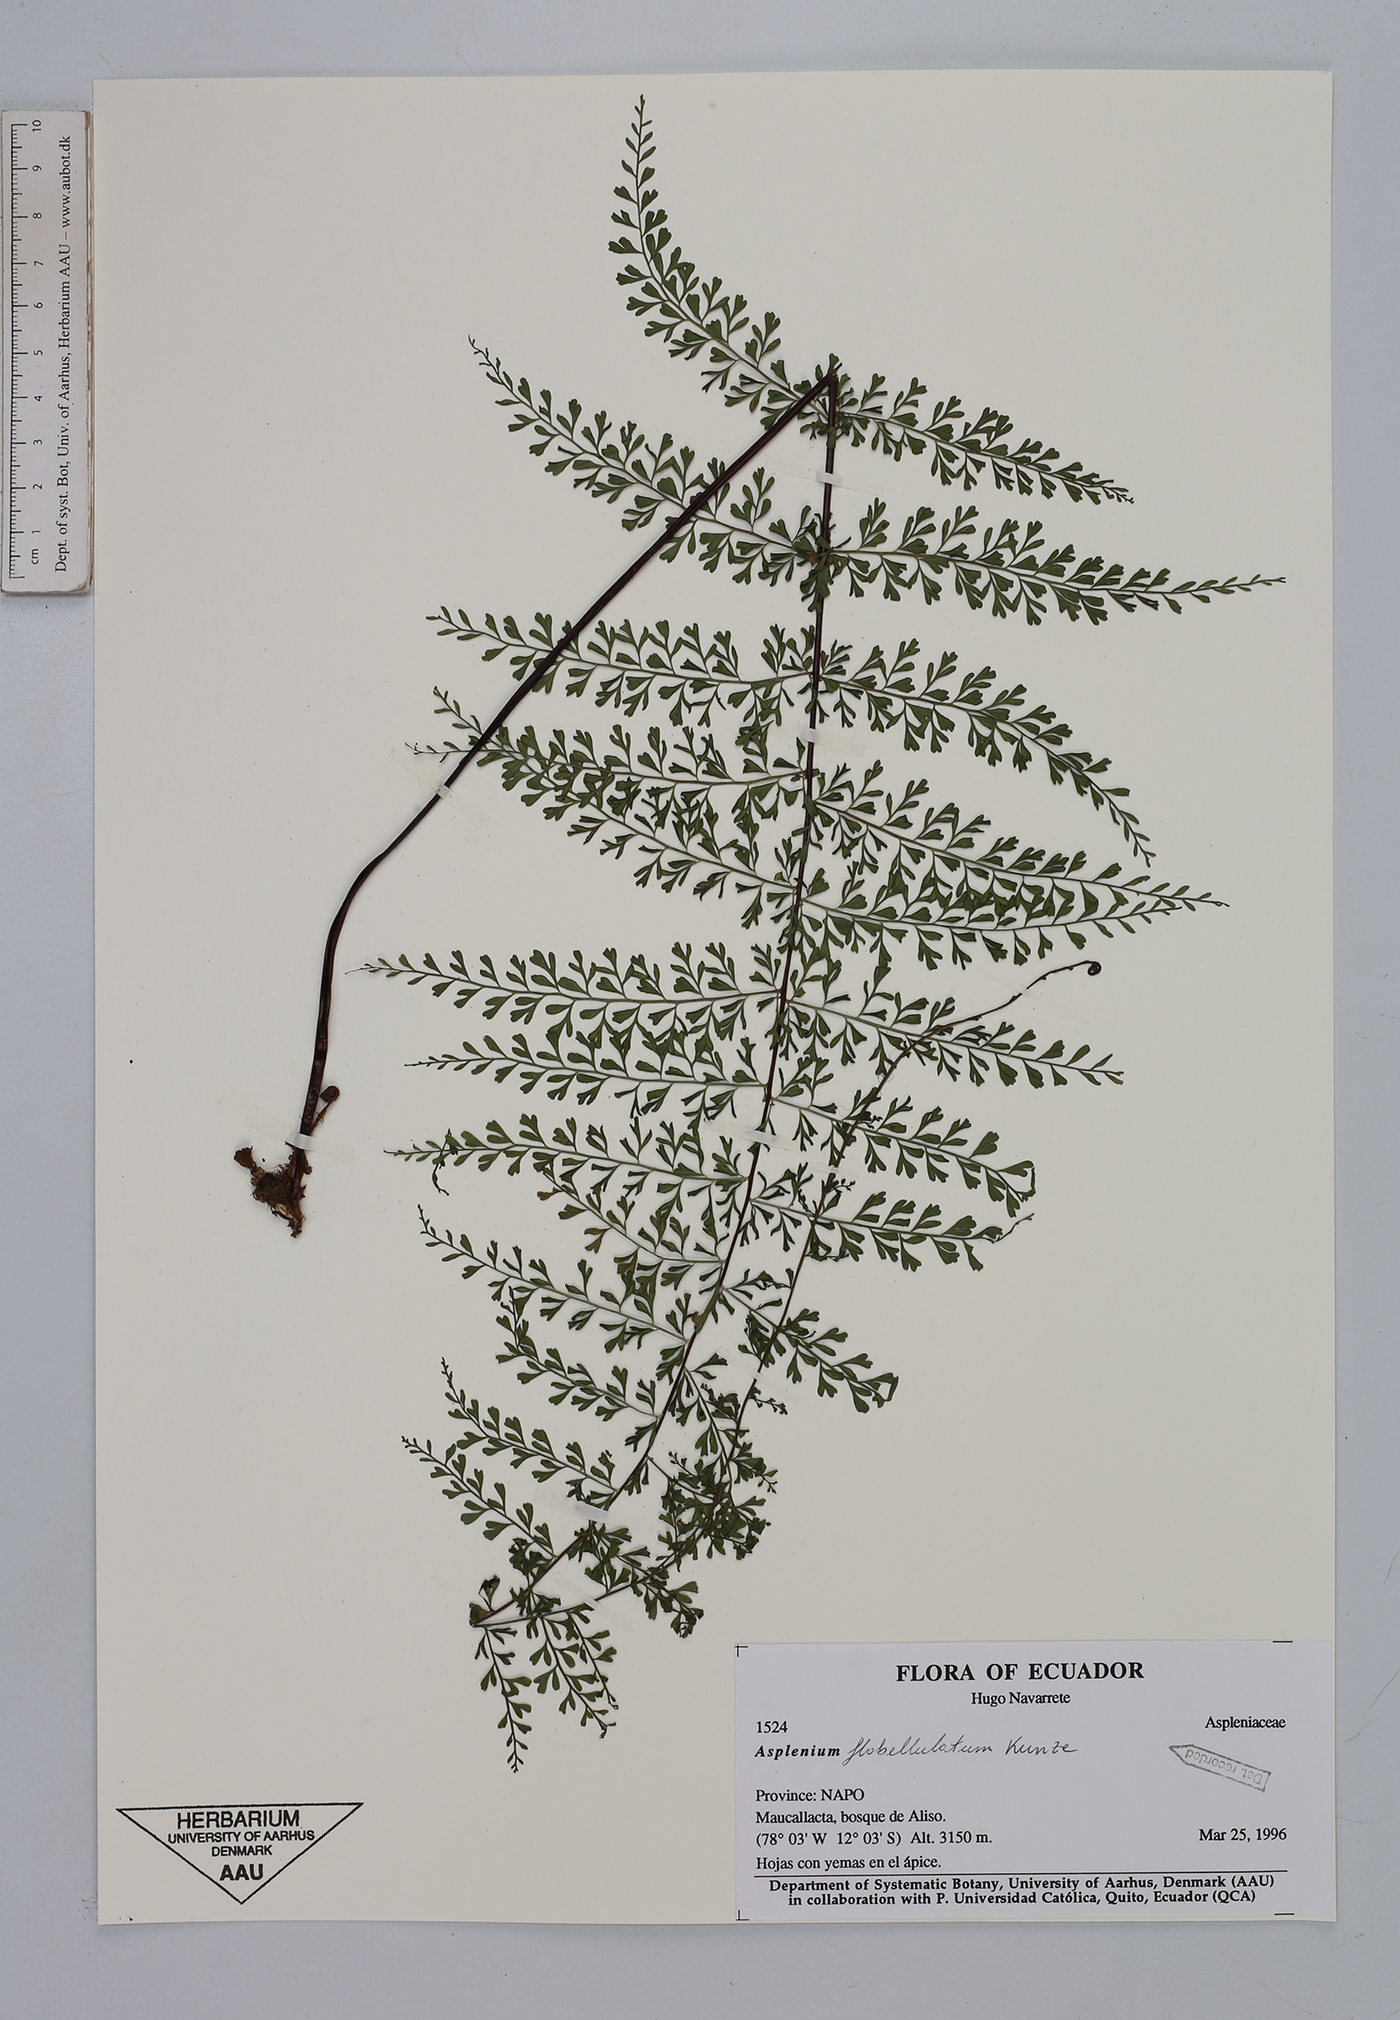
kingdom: Plantae
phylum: Tracheophyta
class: Polypodiopsida
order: Polypodiales
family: Aspleniaceae
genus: Asplenium
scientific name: Asplenium flabellulatum
